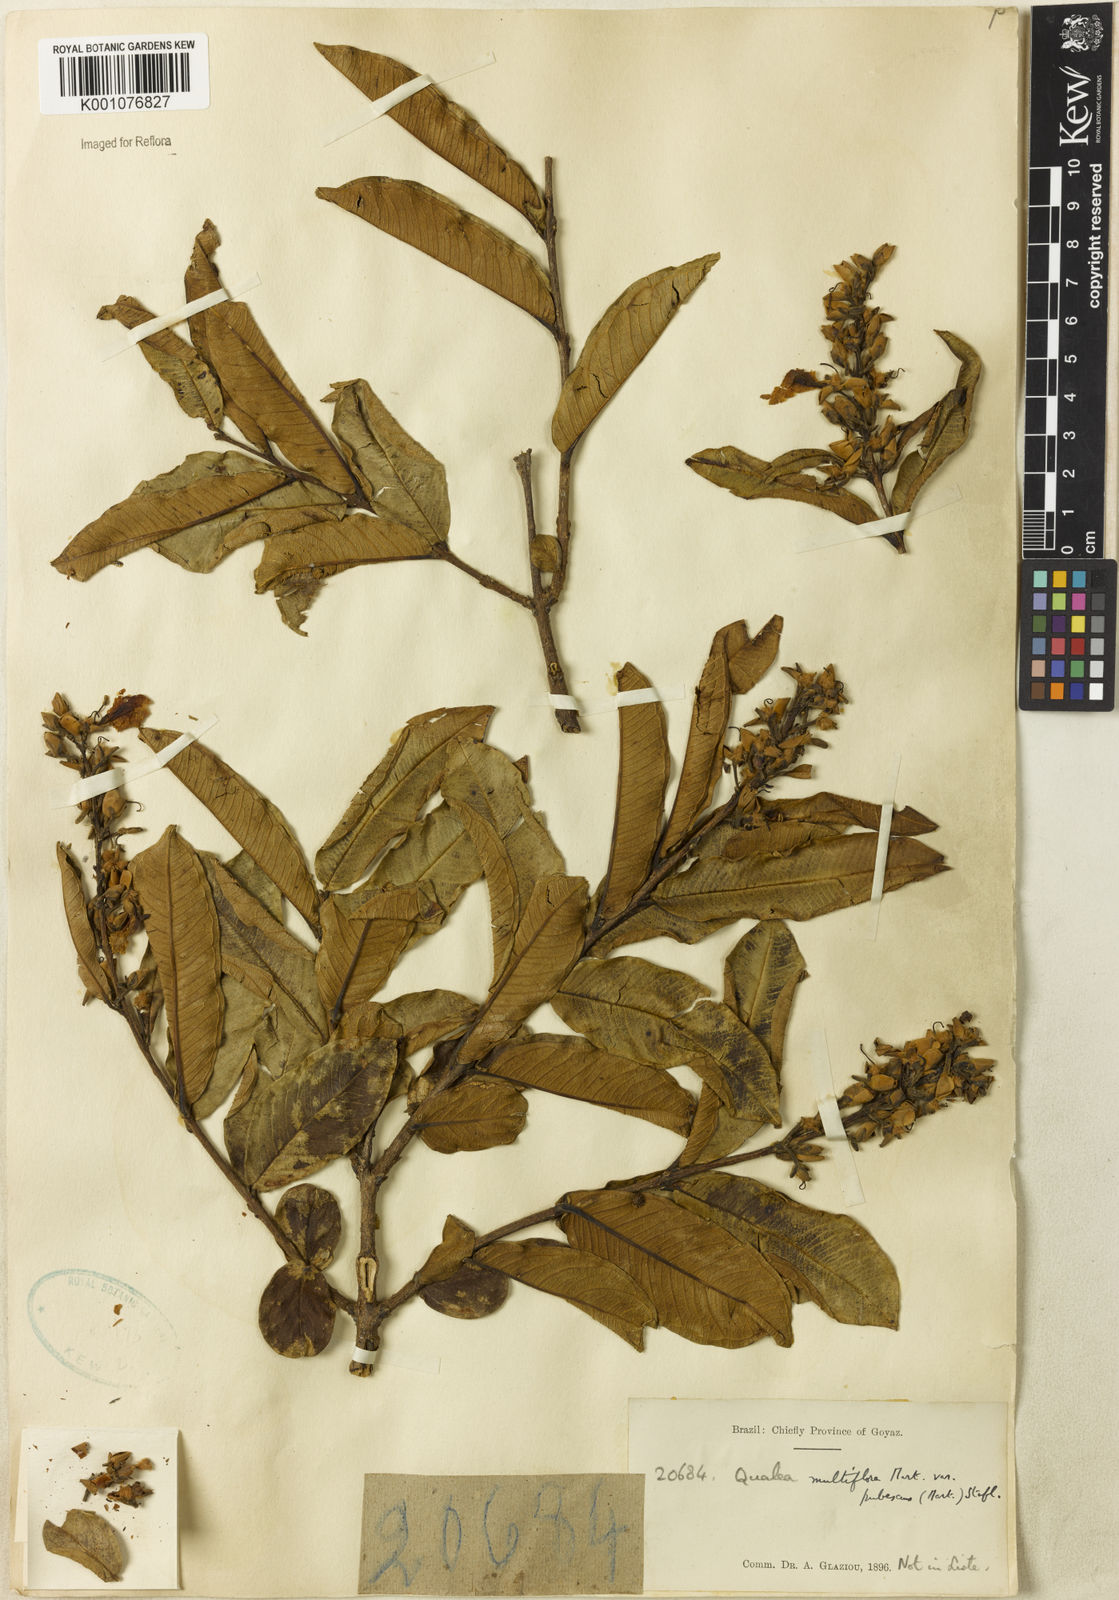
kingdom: Plantae
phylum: Tracheophyta
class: Magnoliopsida
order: Myrtales
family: Vochysiaceae
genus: Qualea
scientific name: Qualea multiflora
